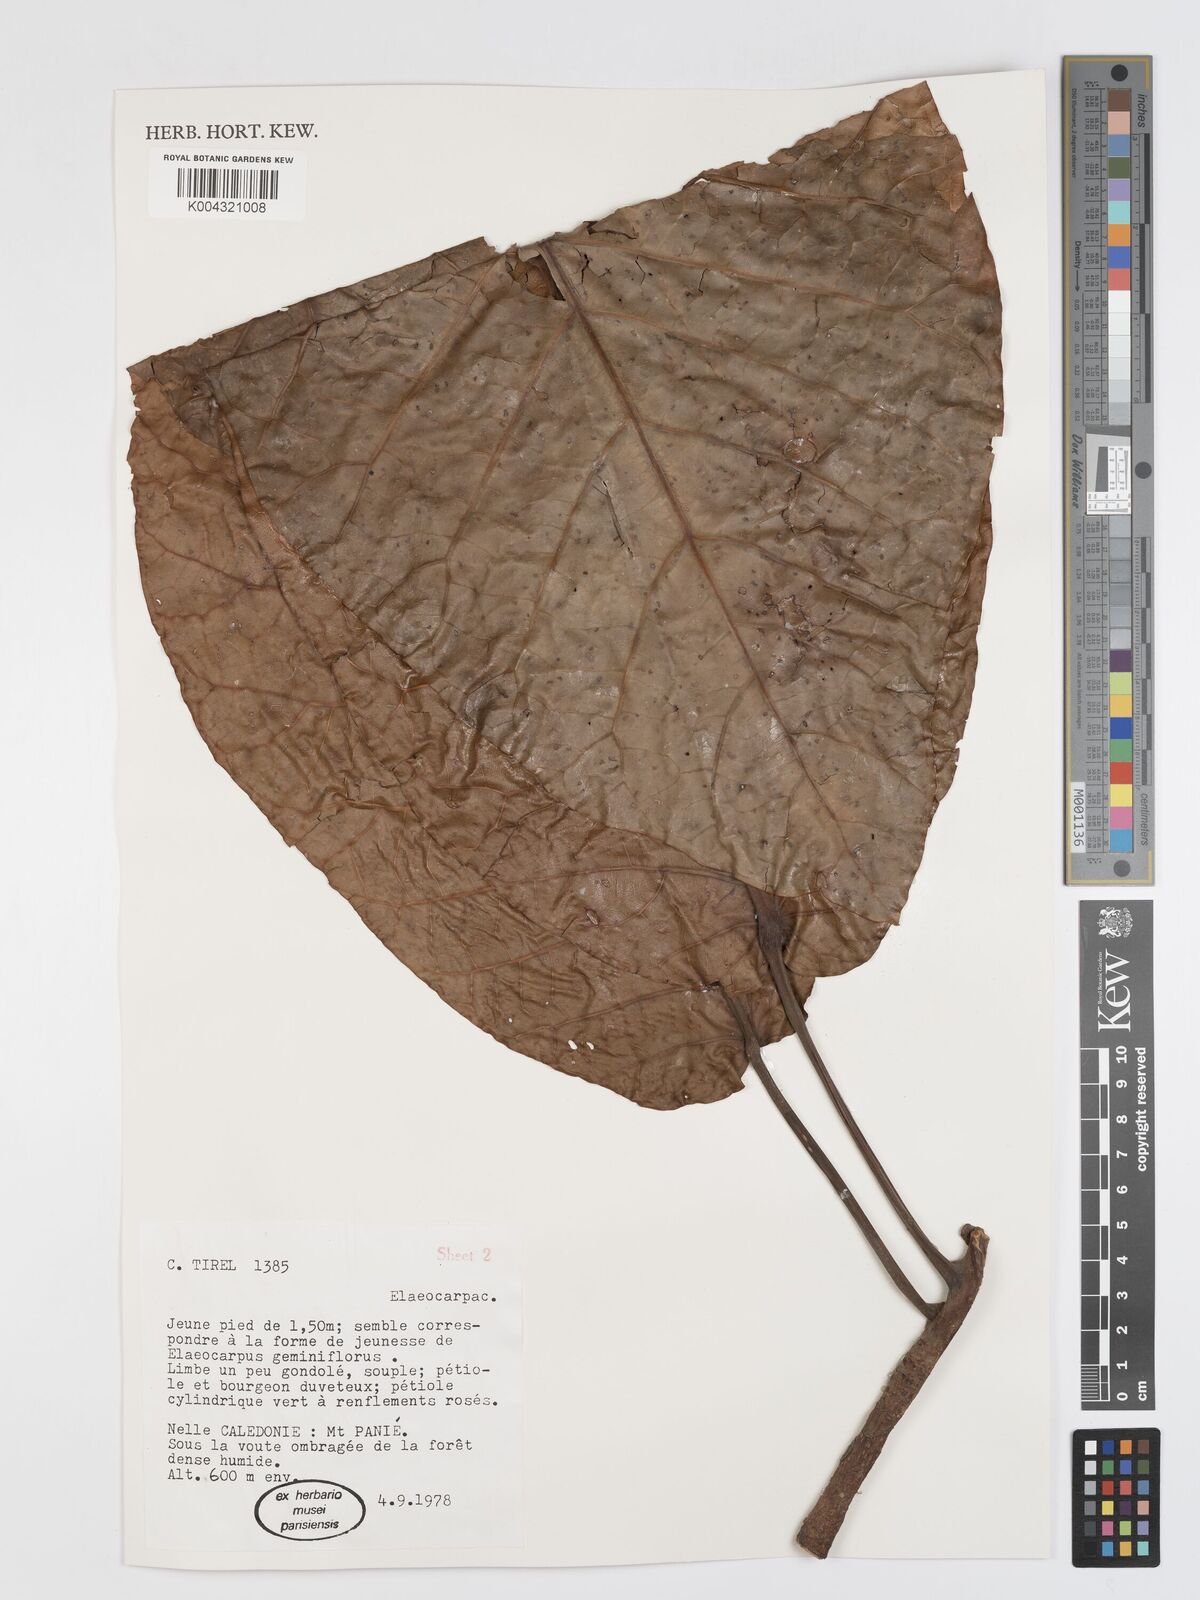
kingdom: Plantae
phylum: Tracheophyta
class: Magnoliopsida
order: Oxalidales
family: Elaeocarpaceae
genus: Sloanea
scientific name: Sloanea
